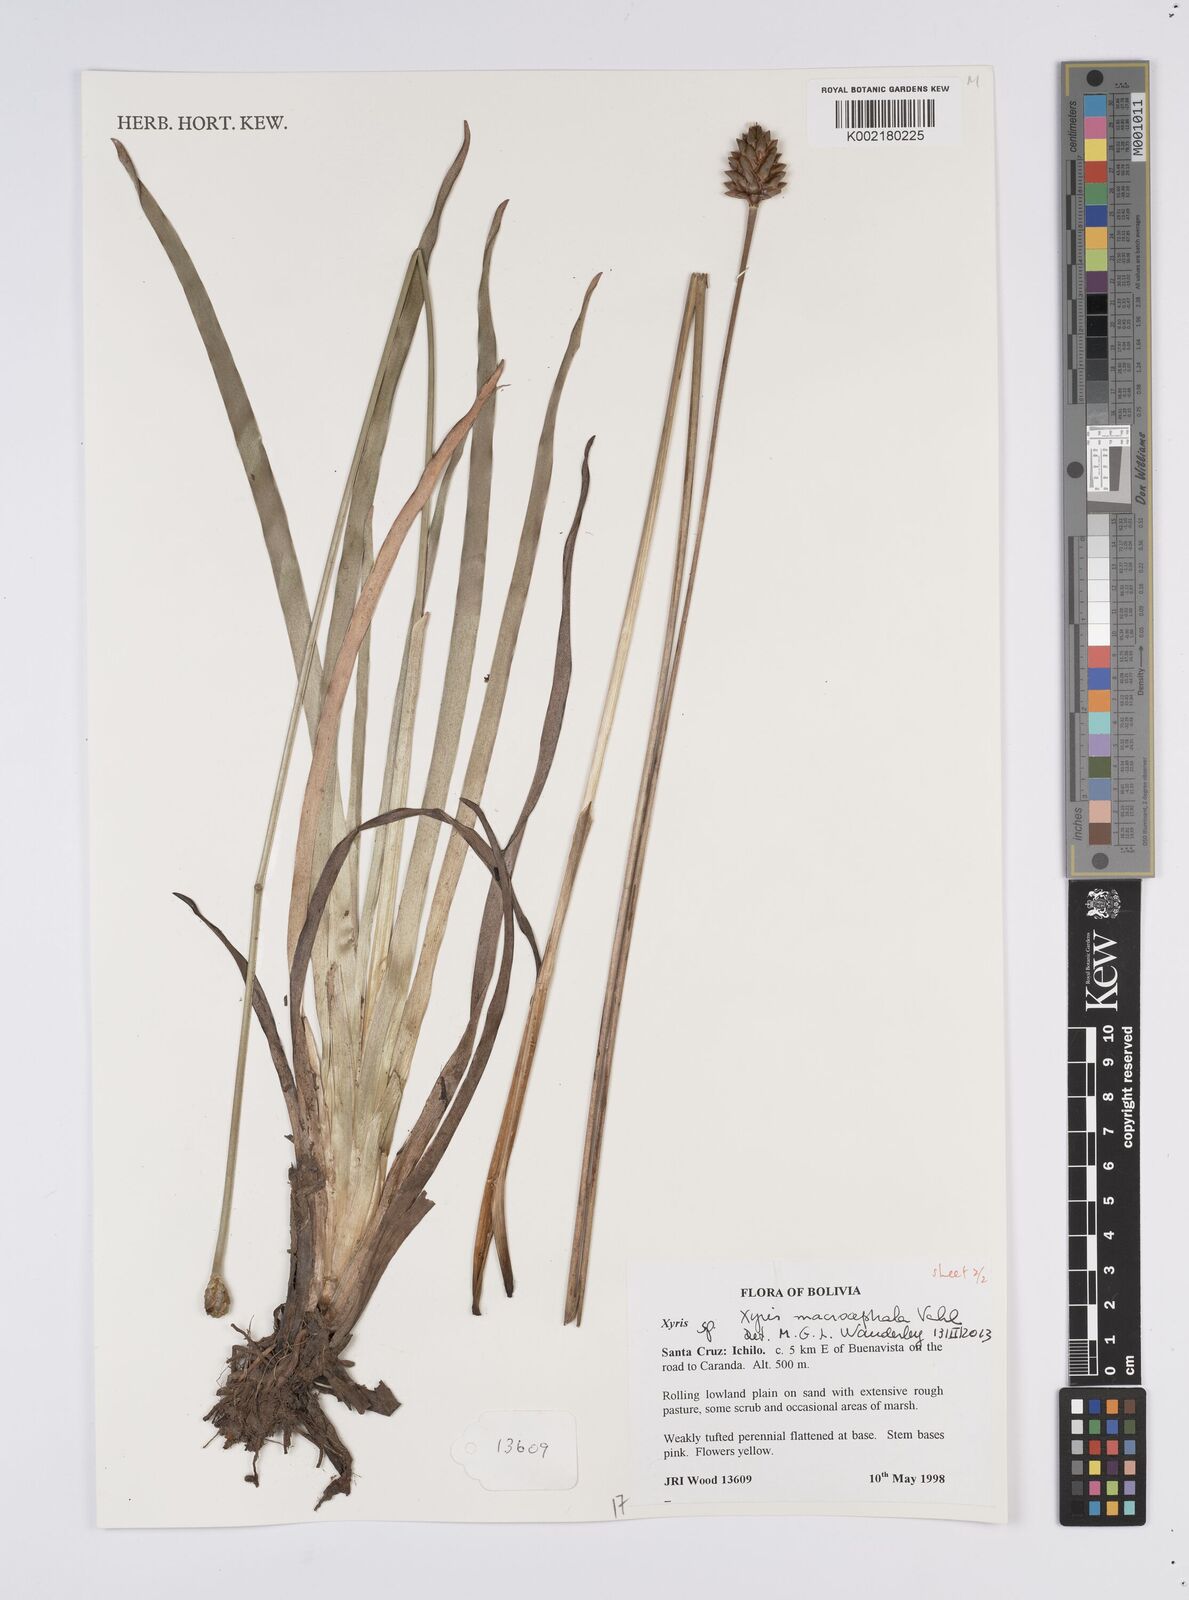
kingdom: Plantae
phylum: Tracheophyta
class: Liliopsida
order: Poales
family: Xyridaceae
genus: Xyris
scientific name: Xyris laxiflora
